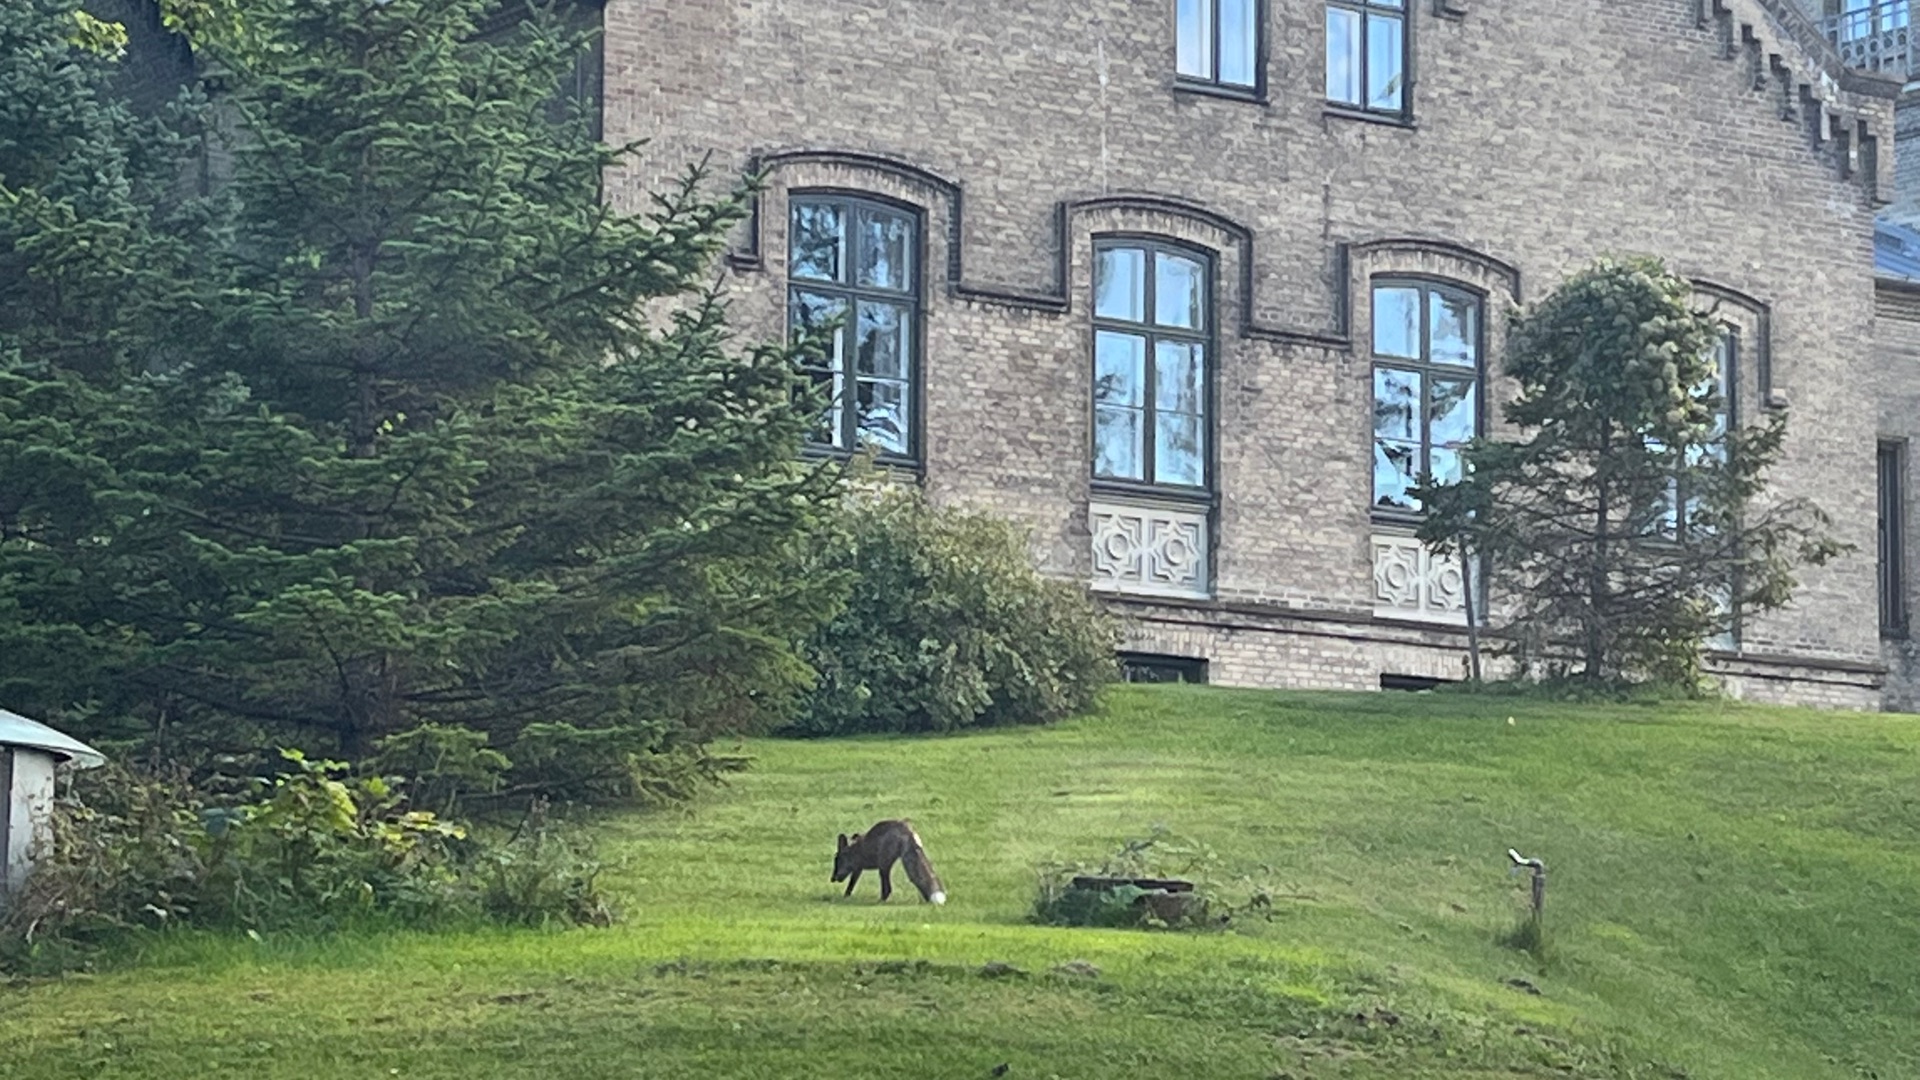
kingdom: Animalia
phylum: Chordata
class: Mammalia
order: Carnivora
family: Canidae
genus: Vulpes
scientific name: Vulpes vulpes
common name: Ræv
